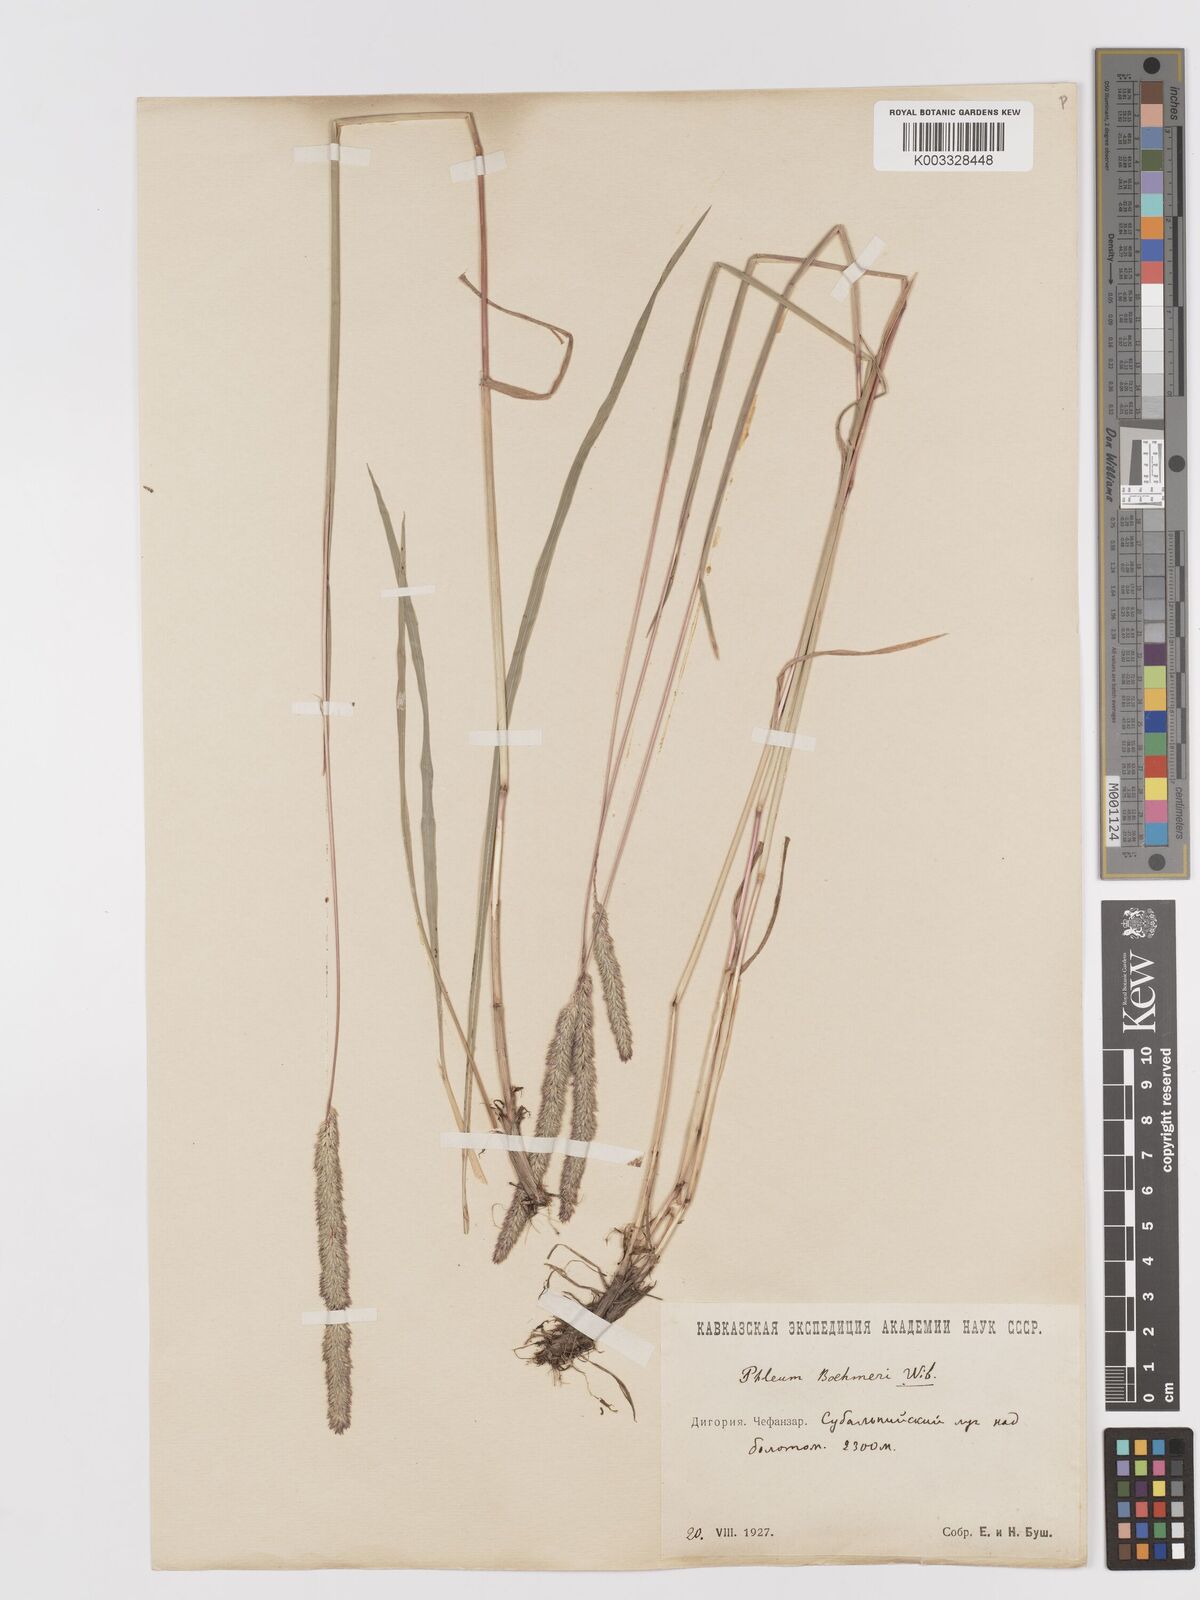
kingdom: Plantae
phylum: Tracheophyta
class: Liliopsida
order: Poales
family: Poaceae
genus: Phleum
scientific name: Phleum phleoides
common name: Purple-stem cat's-tail
